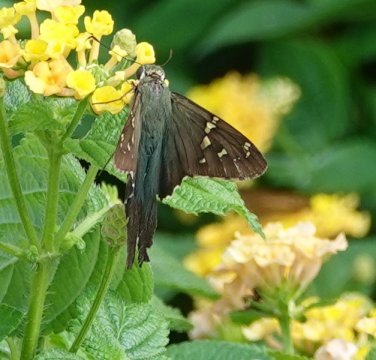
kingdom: Animalia
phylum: Arthropoda
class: Insecta
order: Lepidoptera
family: Hesperiidae
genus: Urbanus
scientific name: Urbanus proteus
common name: Long-tailed Skipper
